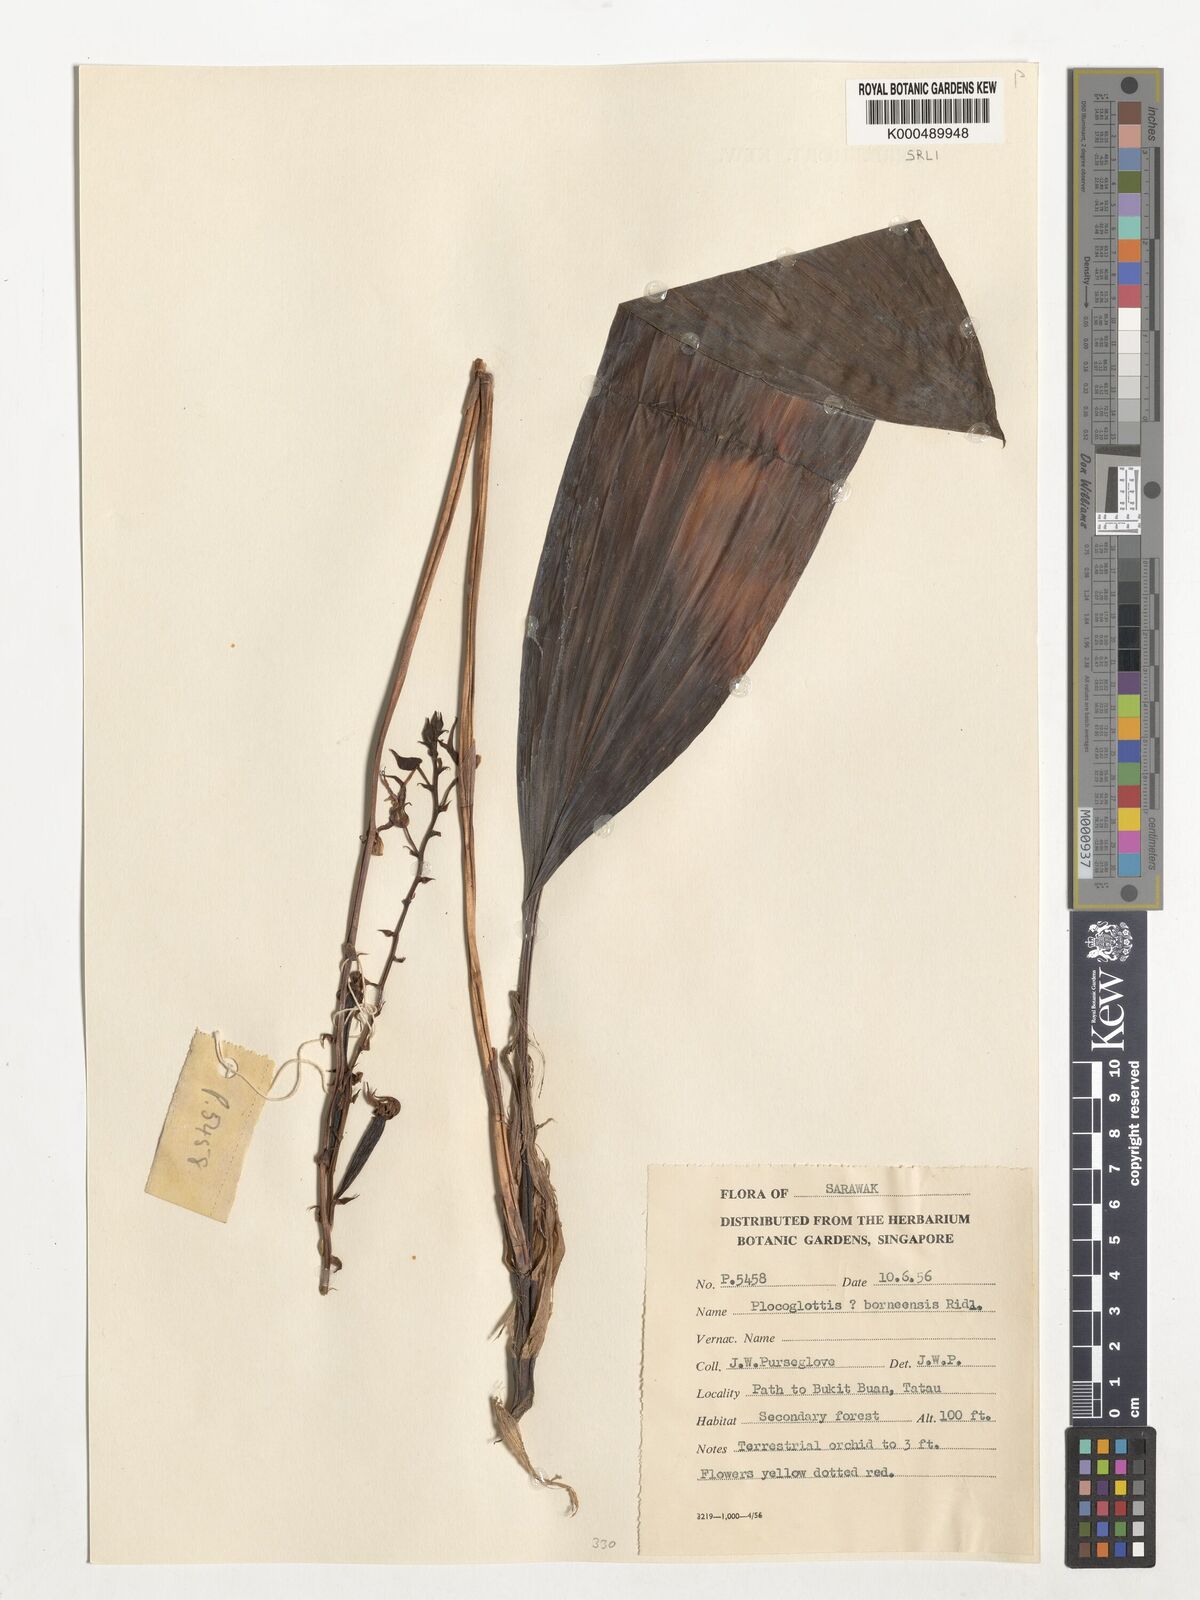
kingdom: Plantae
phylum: Tracheophyta
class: Liliopsida
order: Asparagales
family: Orchidaceae
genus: Plocoglottis
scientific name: Plocoglottis borneensis
